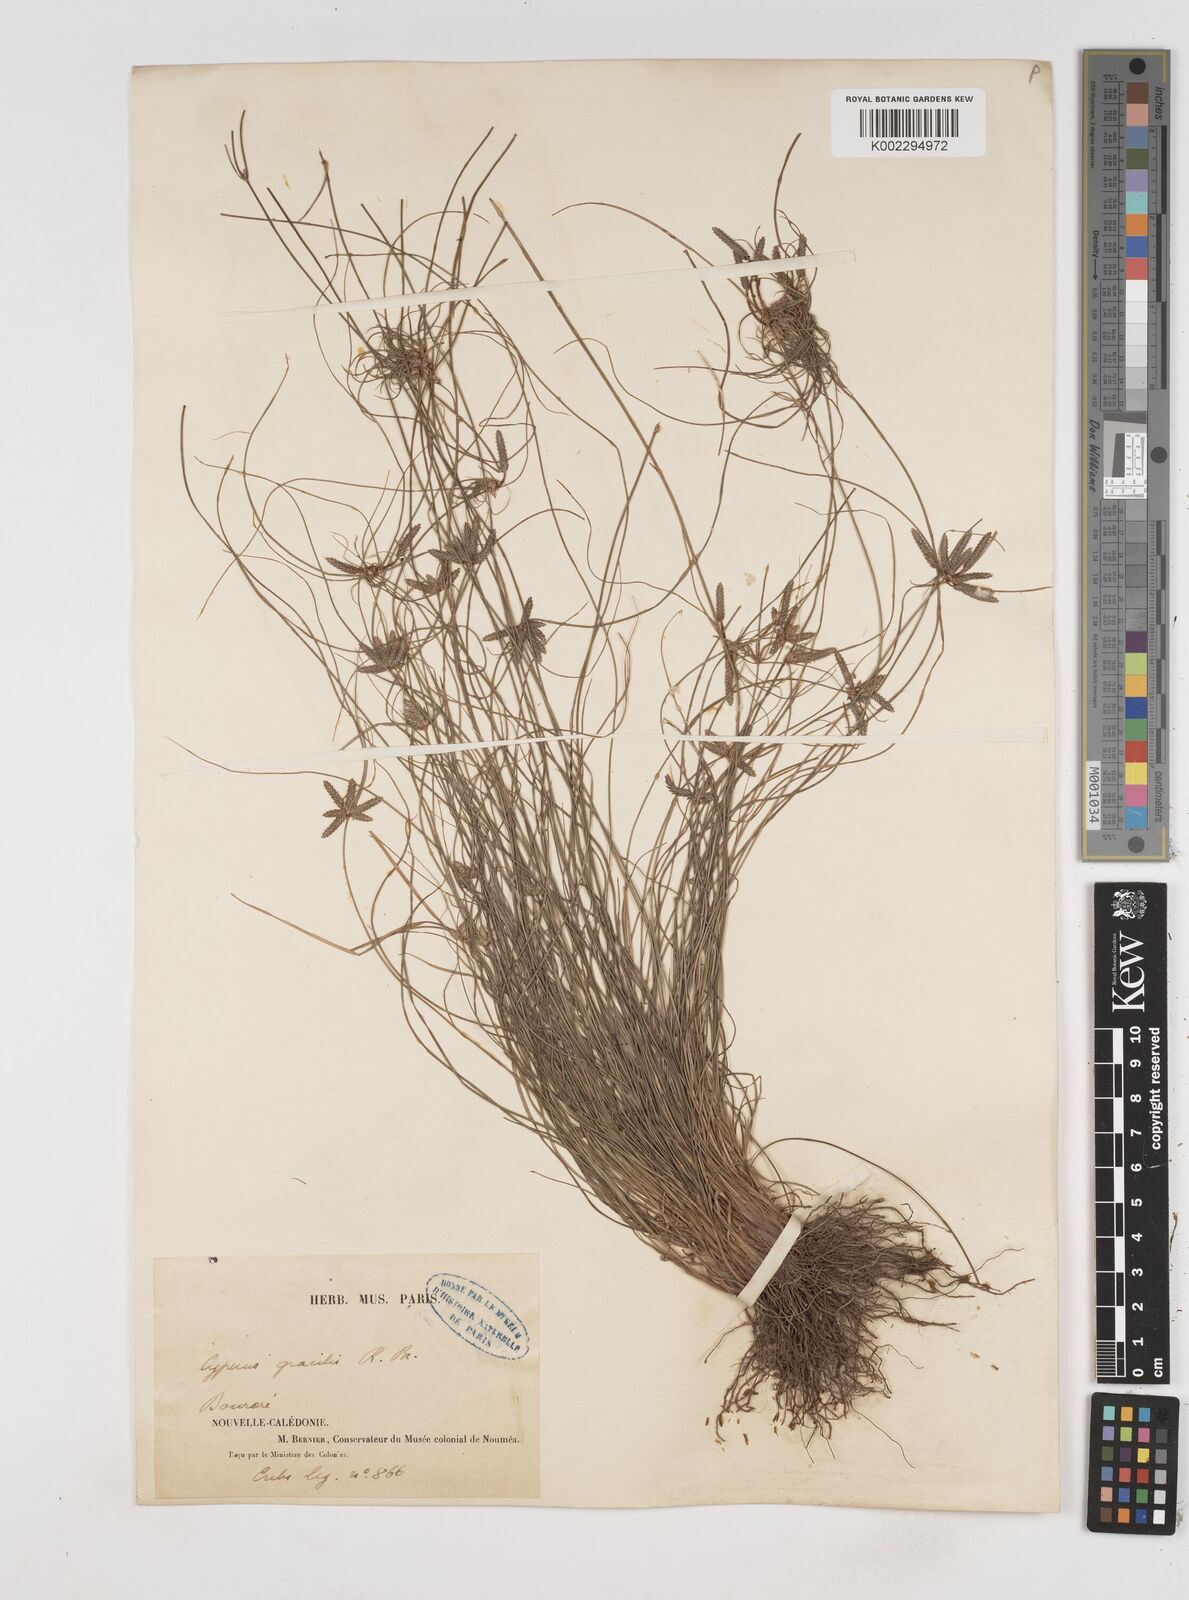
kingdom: Plantae
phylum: Tracheophyta
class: Liliopsida
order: Poales
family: Cyperaceae
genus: Cyperus
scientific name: Cyperus gracilis
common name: Slimjim flatsedge
